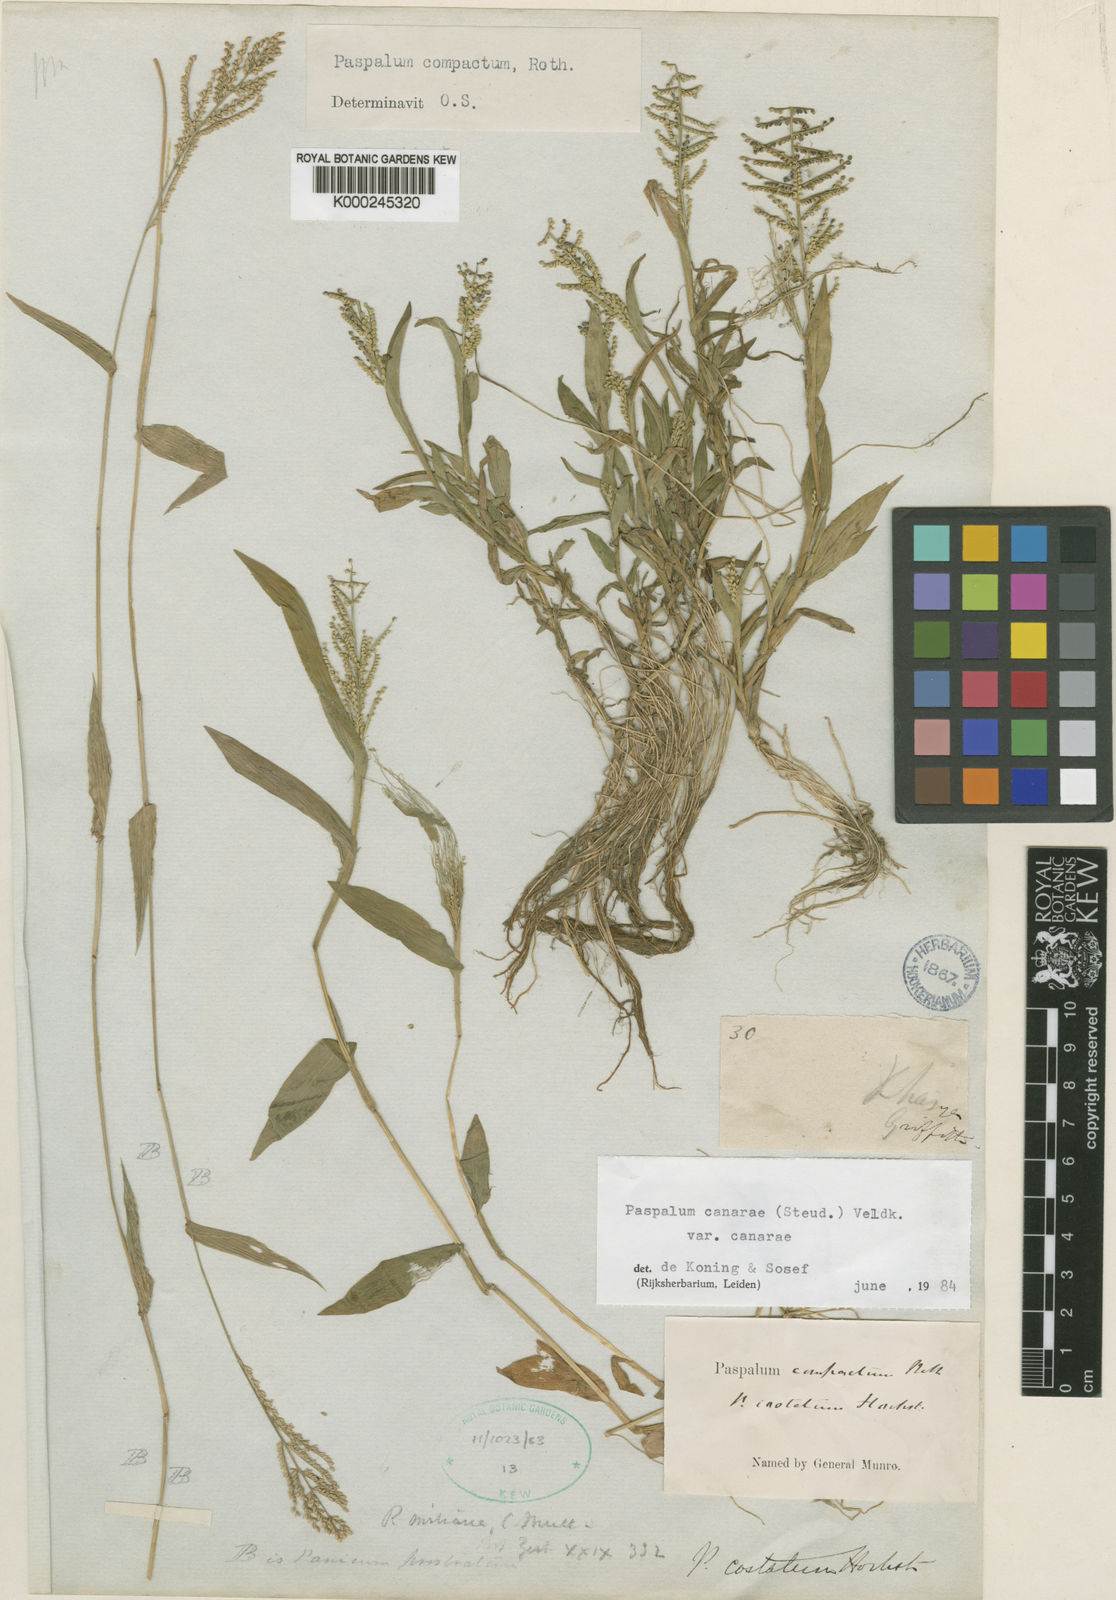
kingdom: Plantae
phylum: Tracheophyta
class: Liliopsida
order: Poales
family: Poaceae
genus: Paspalum
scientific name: Paspalum canarae
